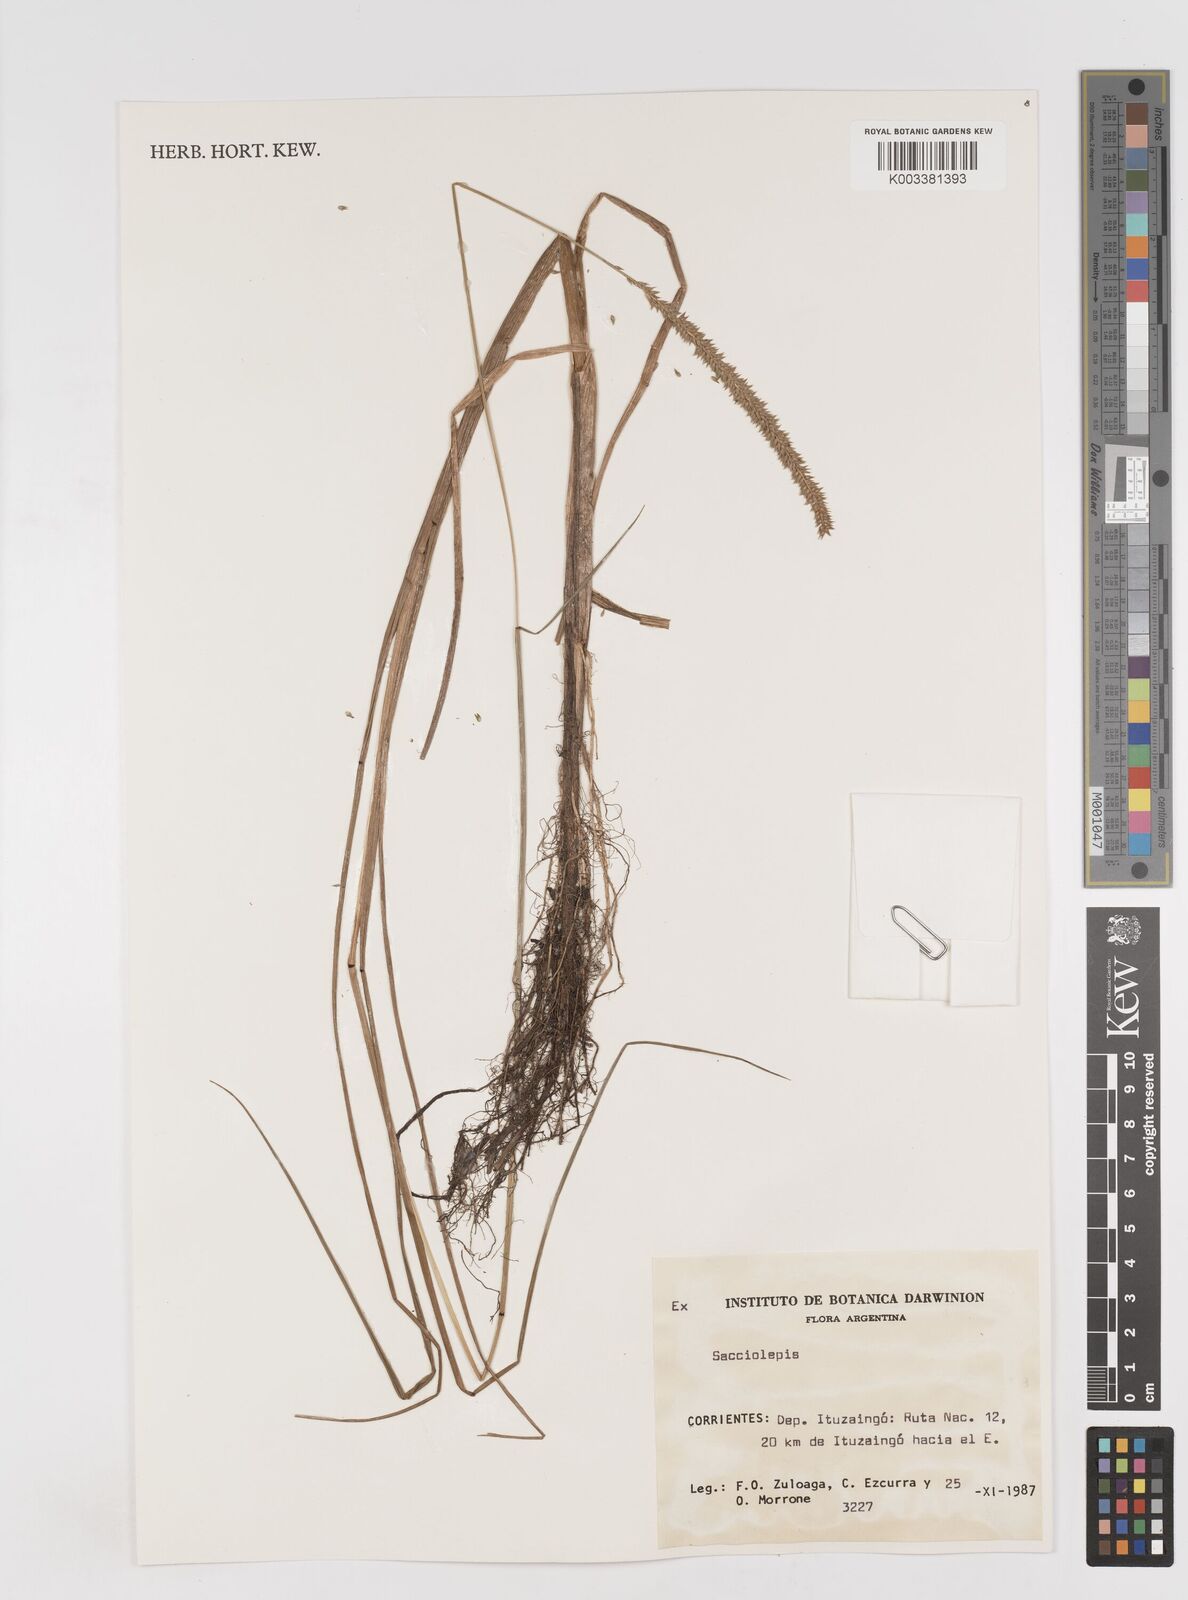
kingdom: Plantae
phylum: Tracheophyta
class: Liliopsida
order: Poales
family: Poaceae
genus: Sacciolepis
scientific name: Sacciolepis vilvoides
